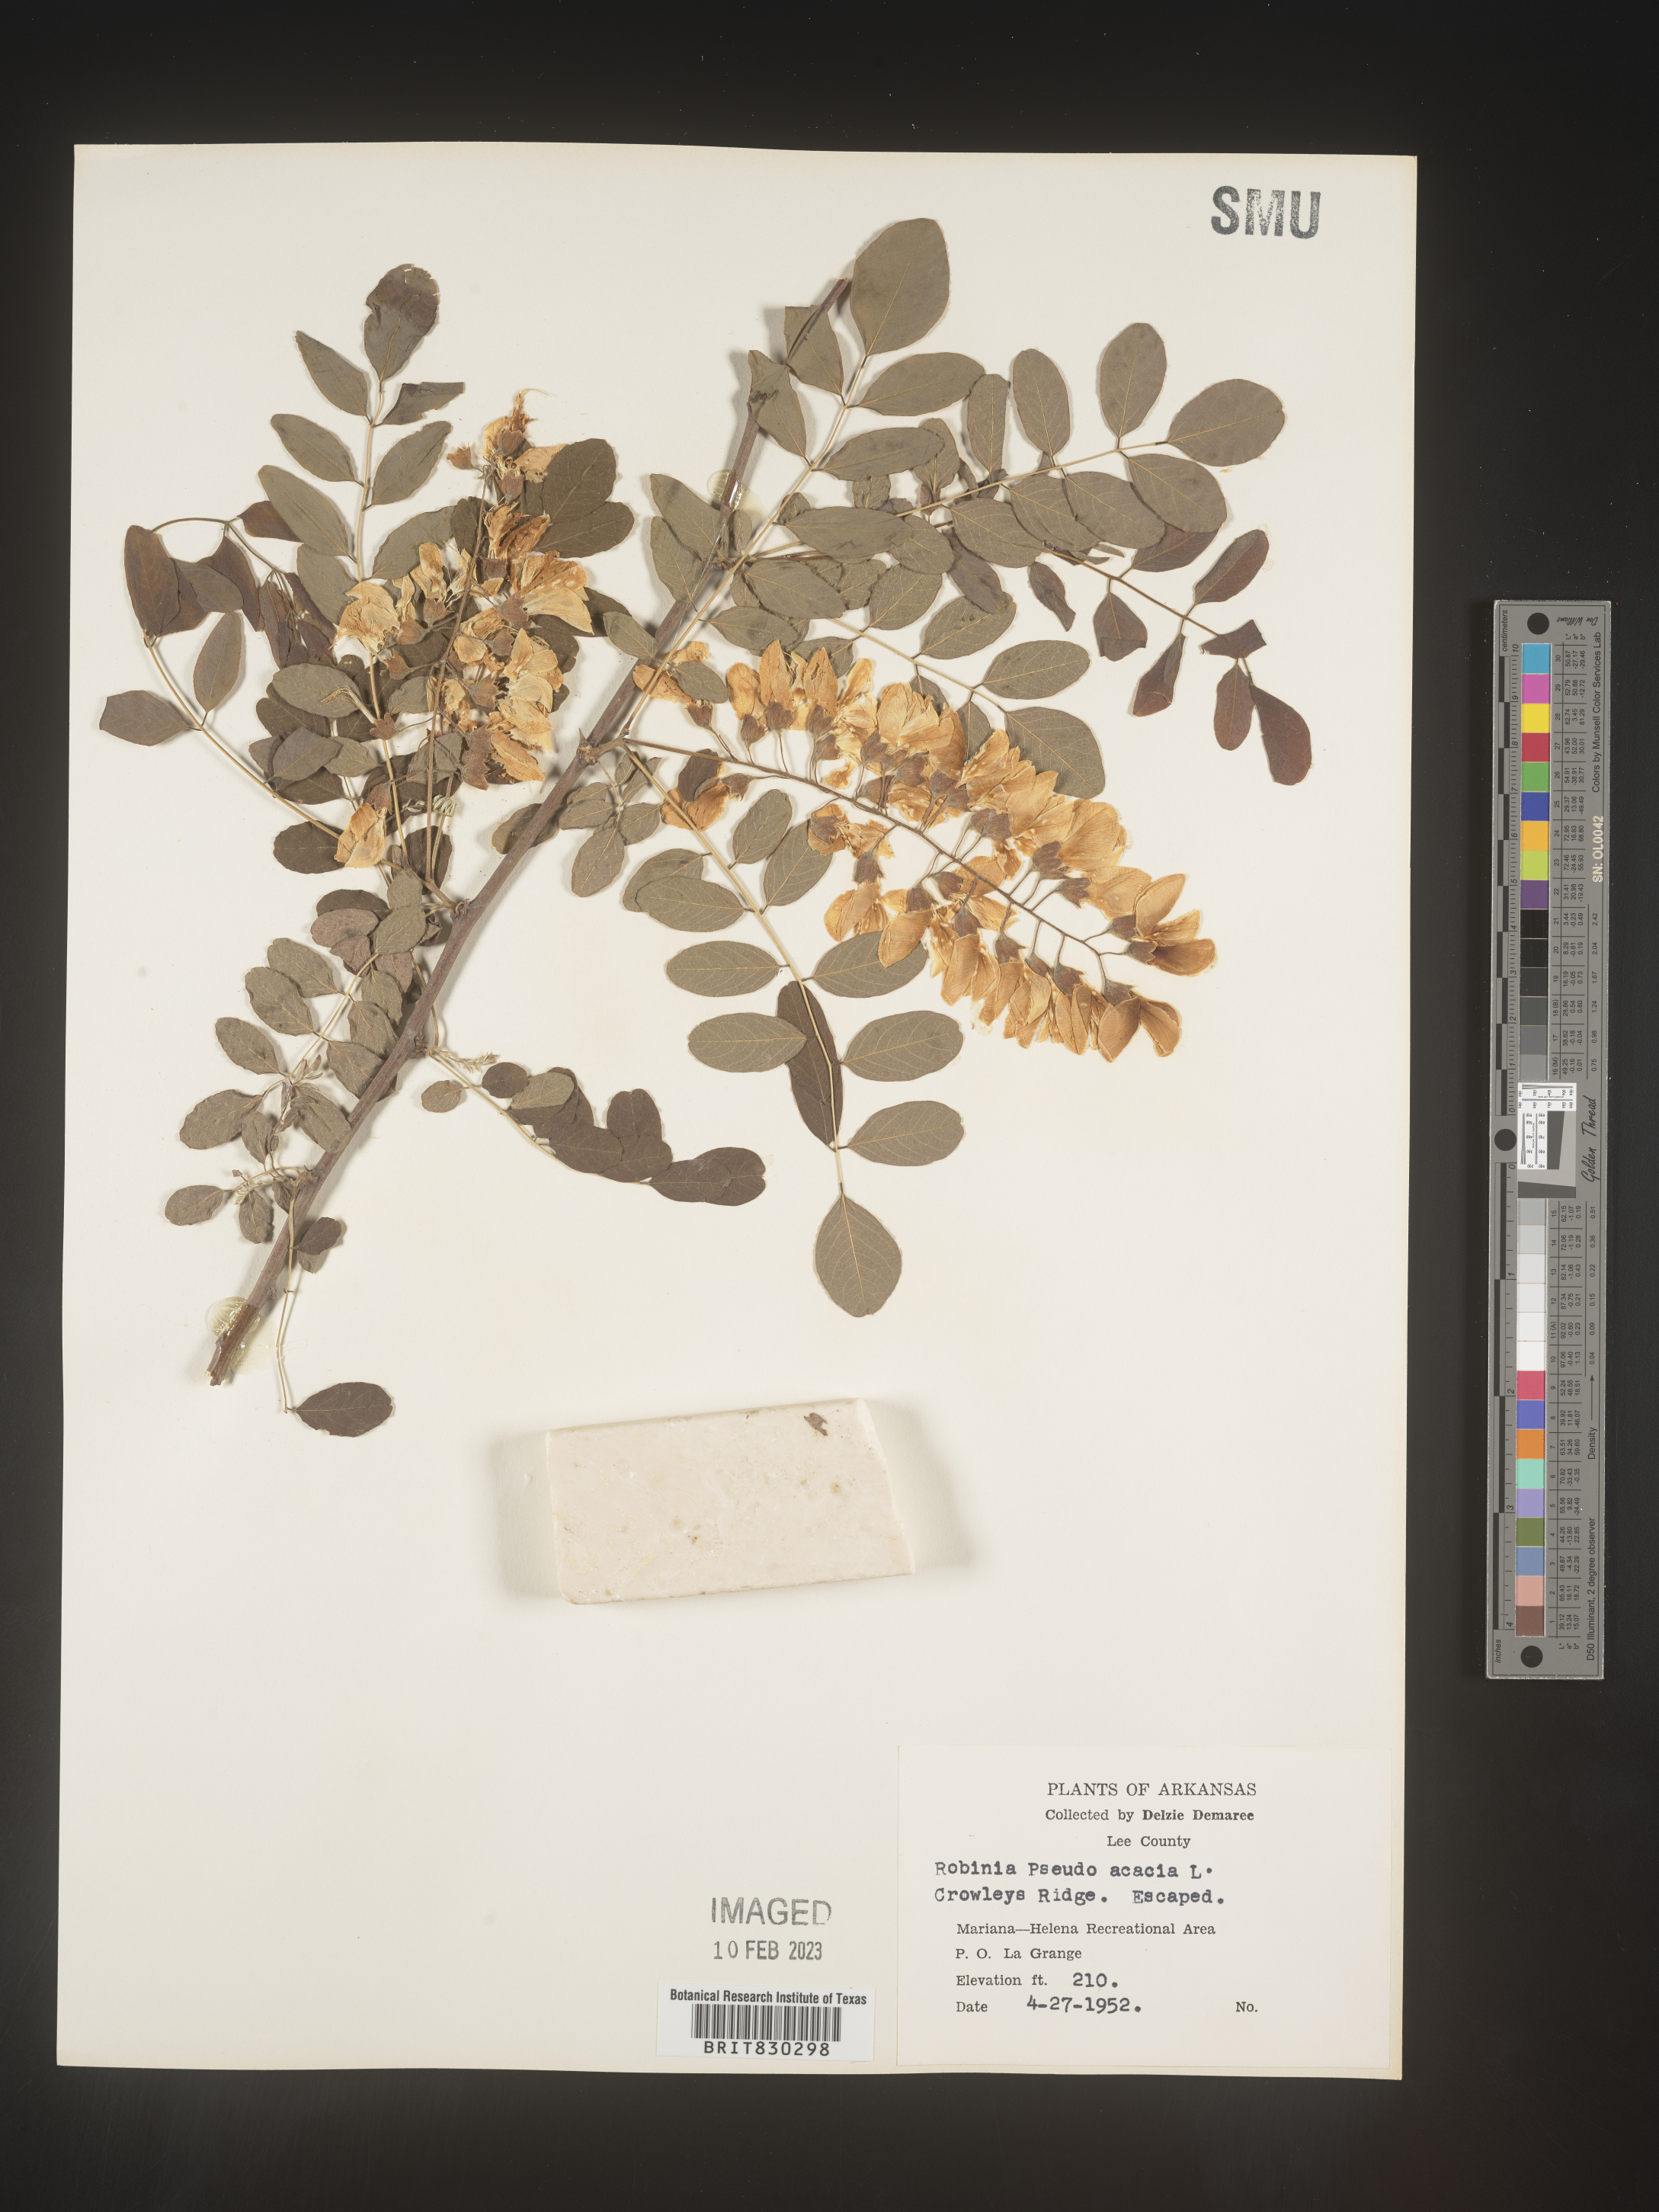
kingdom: Plantae
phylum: Tracheophyta
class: Magnoliopsida
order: Fabales
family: Fabaceae
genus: Robinia
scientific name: Robinia pseudoacacia
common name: Black locust
